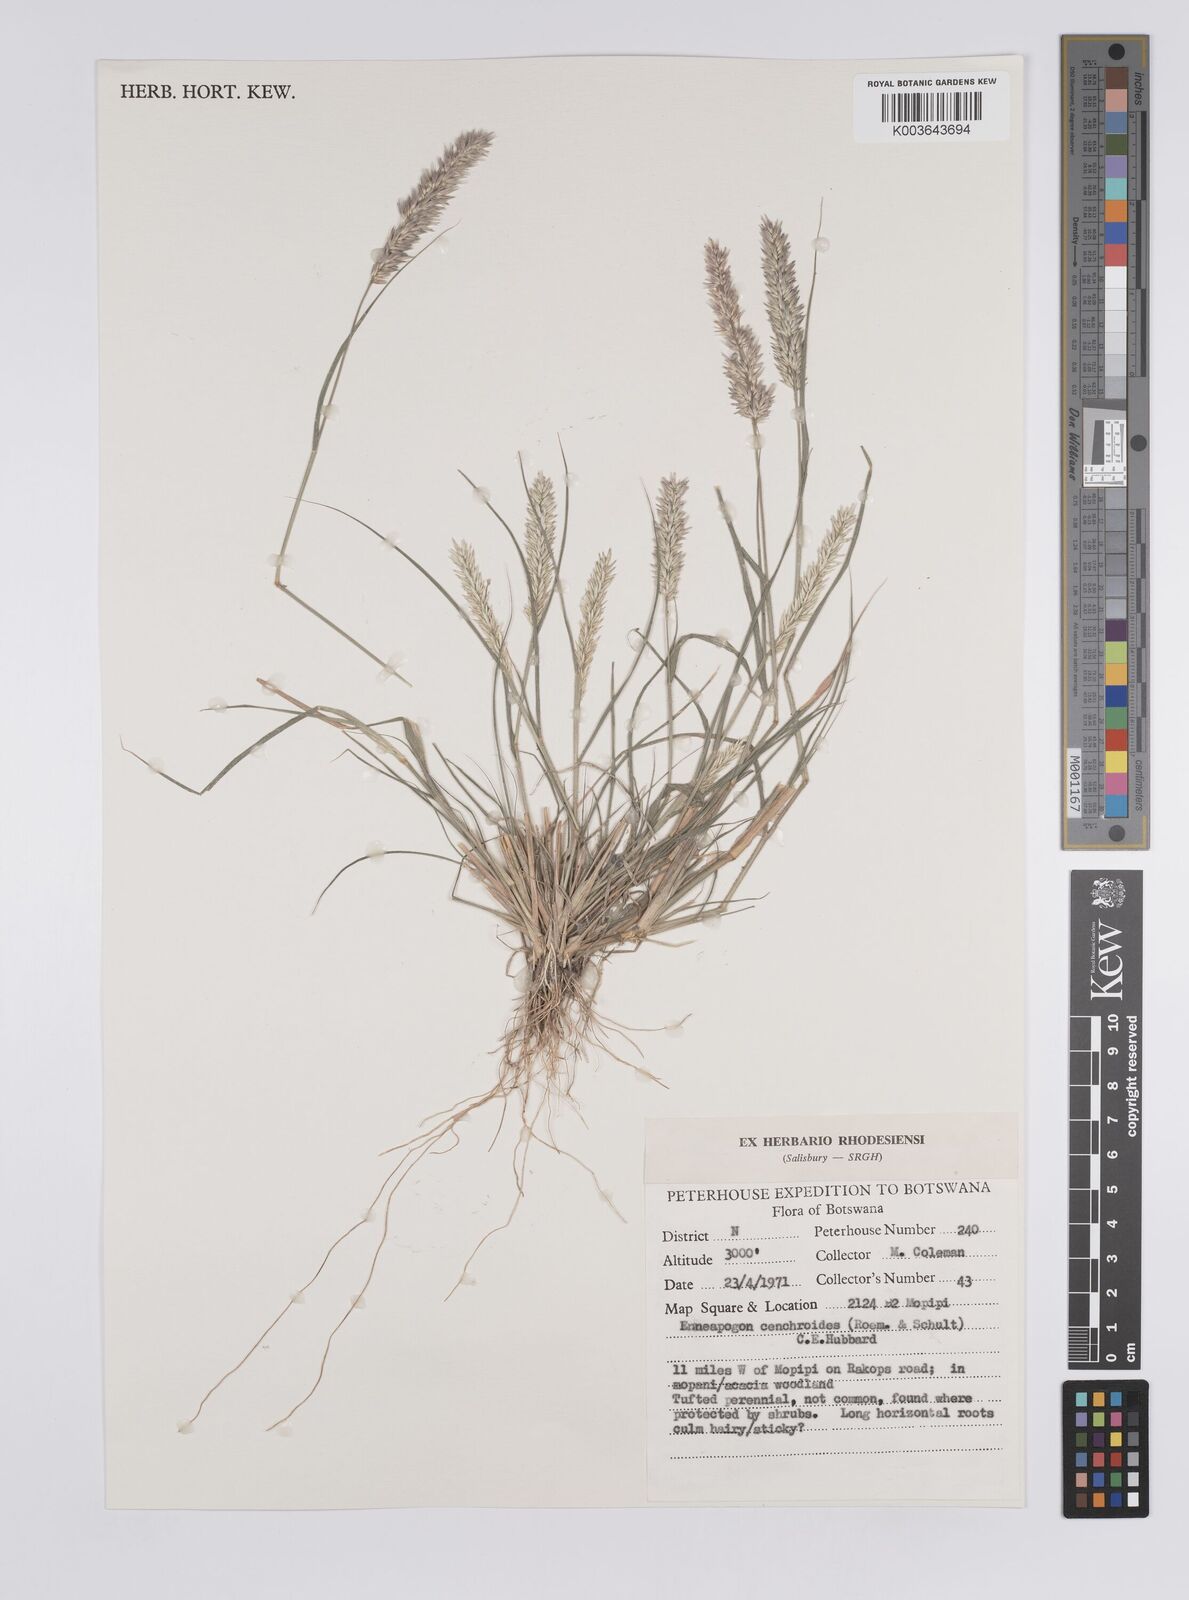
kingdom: Plantae
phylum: Tracheophyta
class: Liliopsida
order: Poales
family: Poaceae
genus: Enneapogon
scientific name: Enneapogon cenchroides
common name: Soft feather pappusgrass
